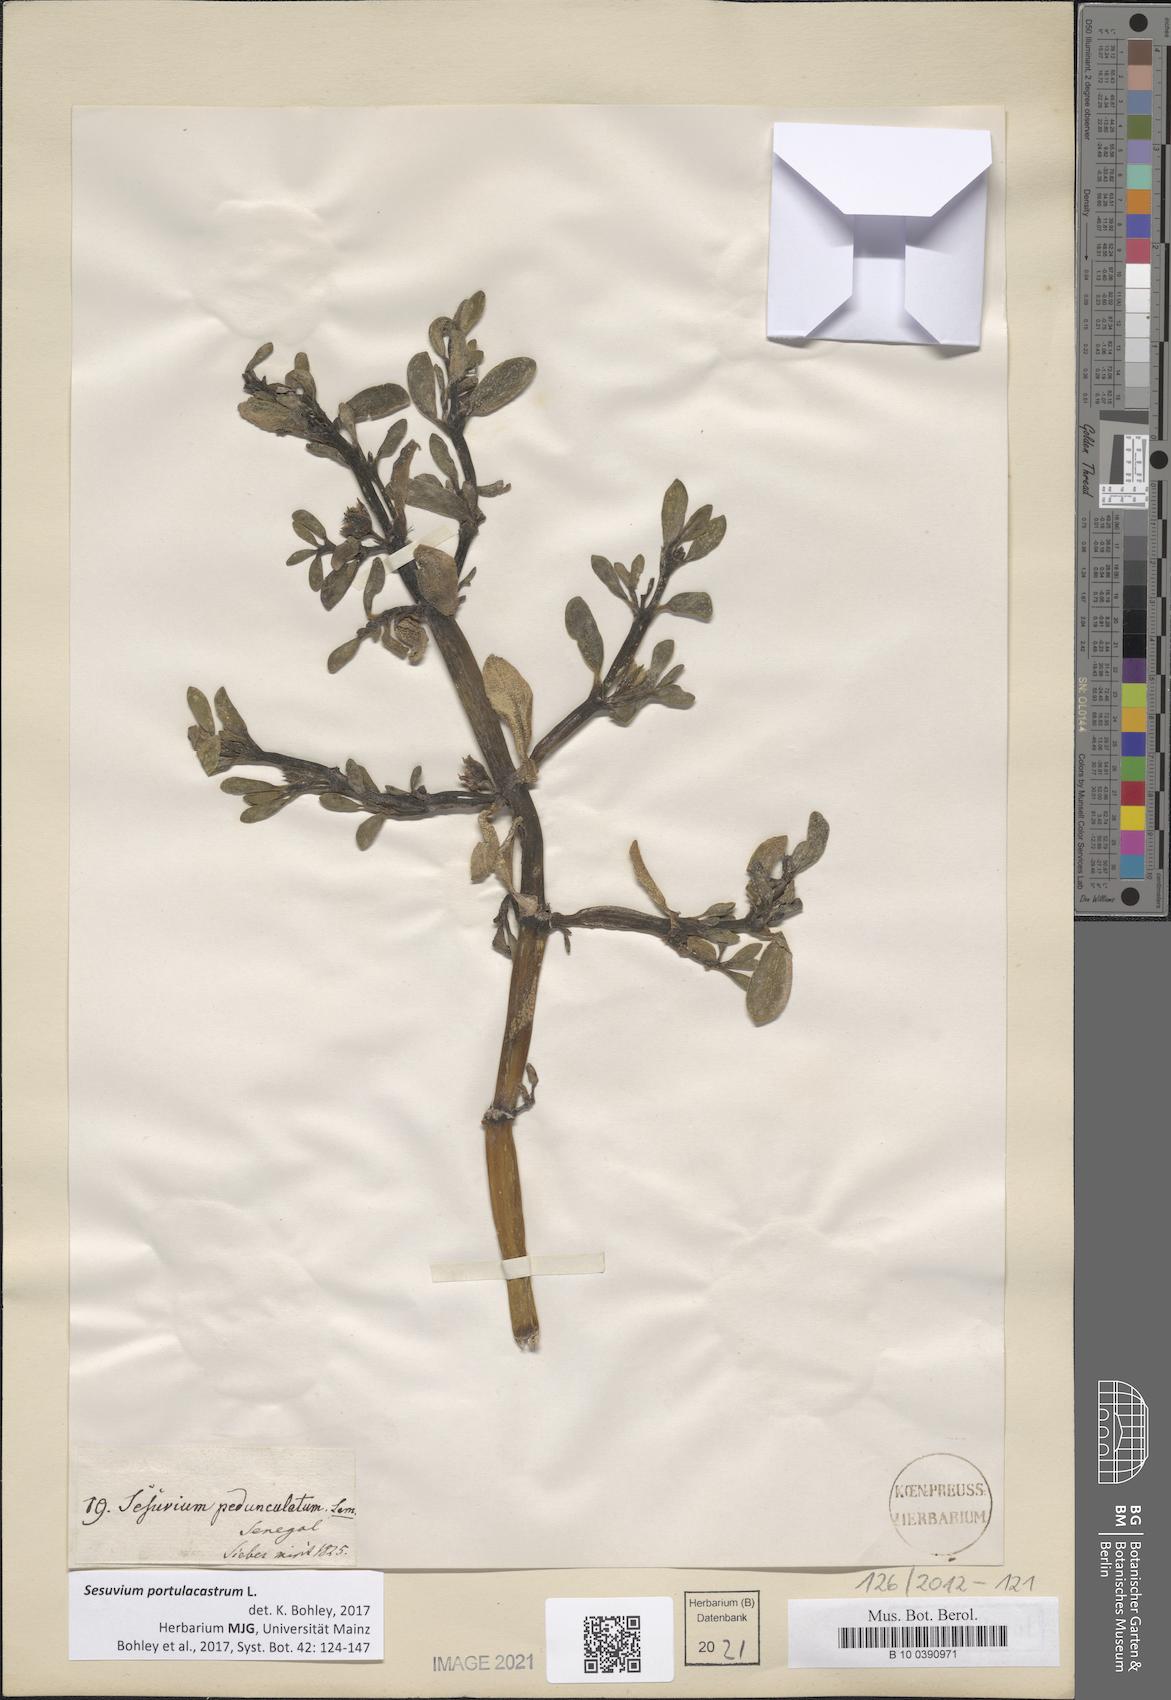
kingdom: Plantae
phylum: Tracheophyta
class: Magnoliopsida
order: Caryophyllales
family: Aizoaceae
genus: Sesuvium
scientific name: Sesuvium portulacastrum
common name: Sea-purslane
